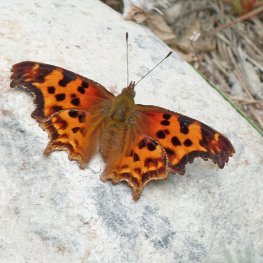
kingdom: Animalia
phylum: Arthropoda
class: Insecta
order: Lepidoptera
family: Nymphalidae
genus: Polygonia
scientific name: Polygonia satyrus
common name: Satyr Comma
